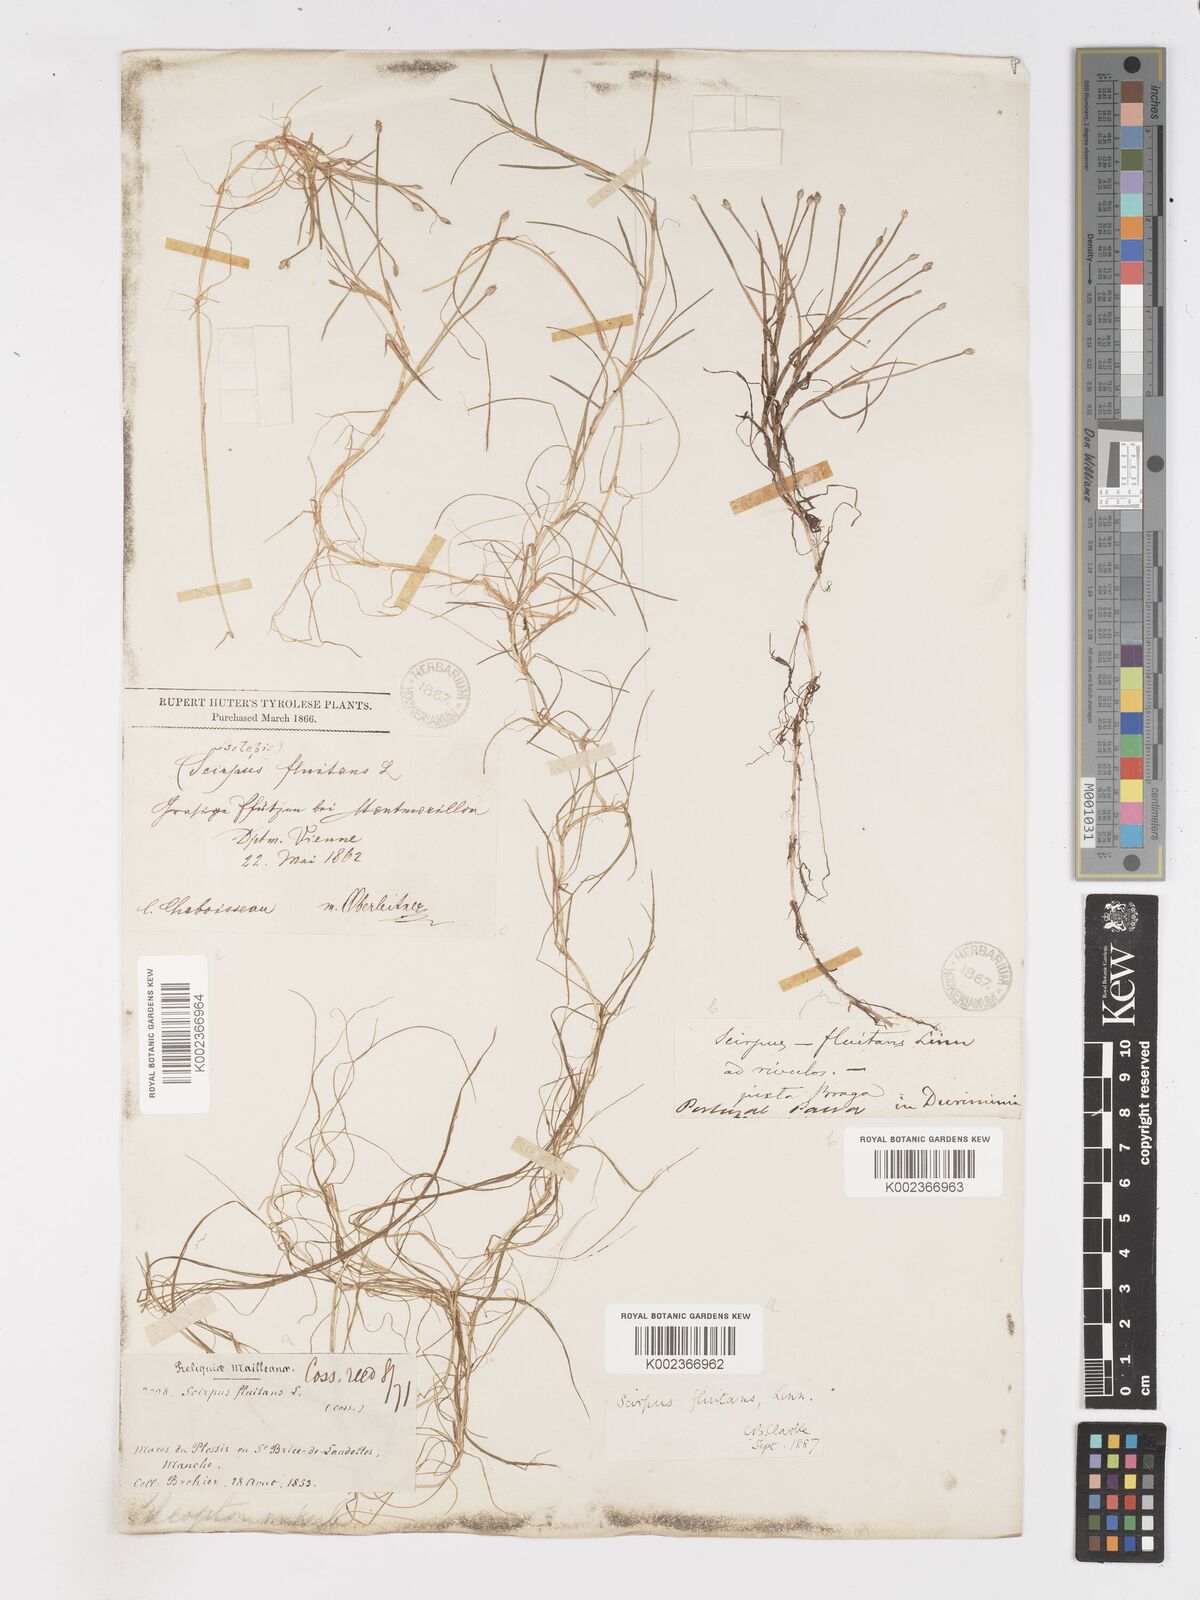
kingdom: Plantae
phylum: Tracheophyta
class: Liliopsida
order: Poales
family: Cyperaceae
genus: Isolepis
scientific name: Isolepis fluitans
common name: Floating club-rush
